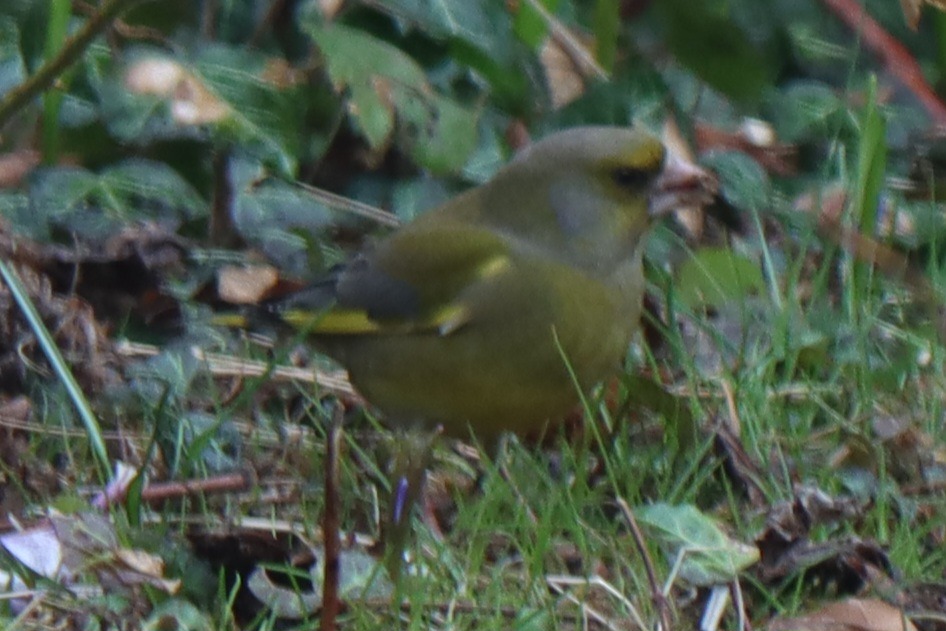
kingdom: Plantae
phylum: Tracheophyta
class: Liliopsida
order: Poales
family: Poaceae
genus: Chloris
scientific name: Chloris chloris
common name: Grønirisk
